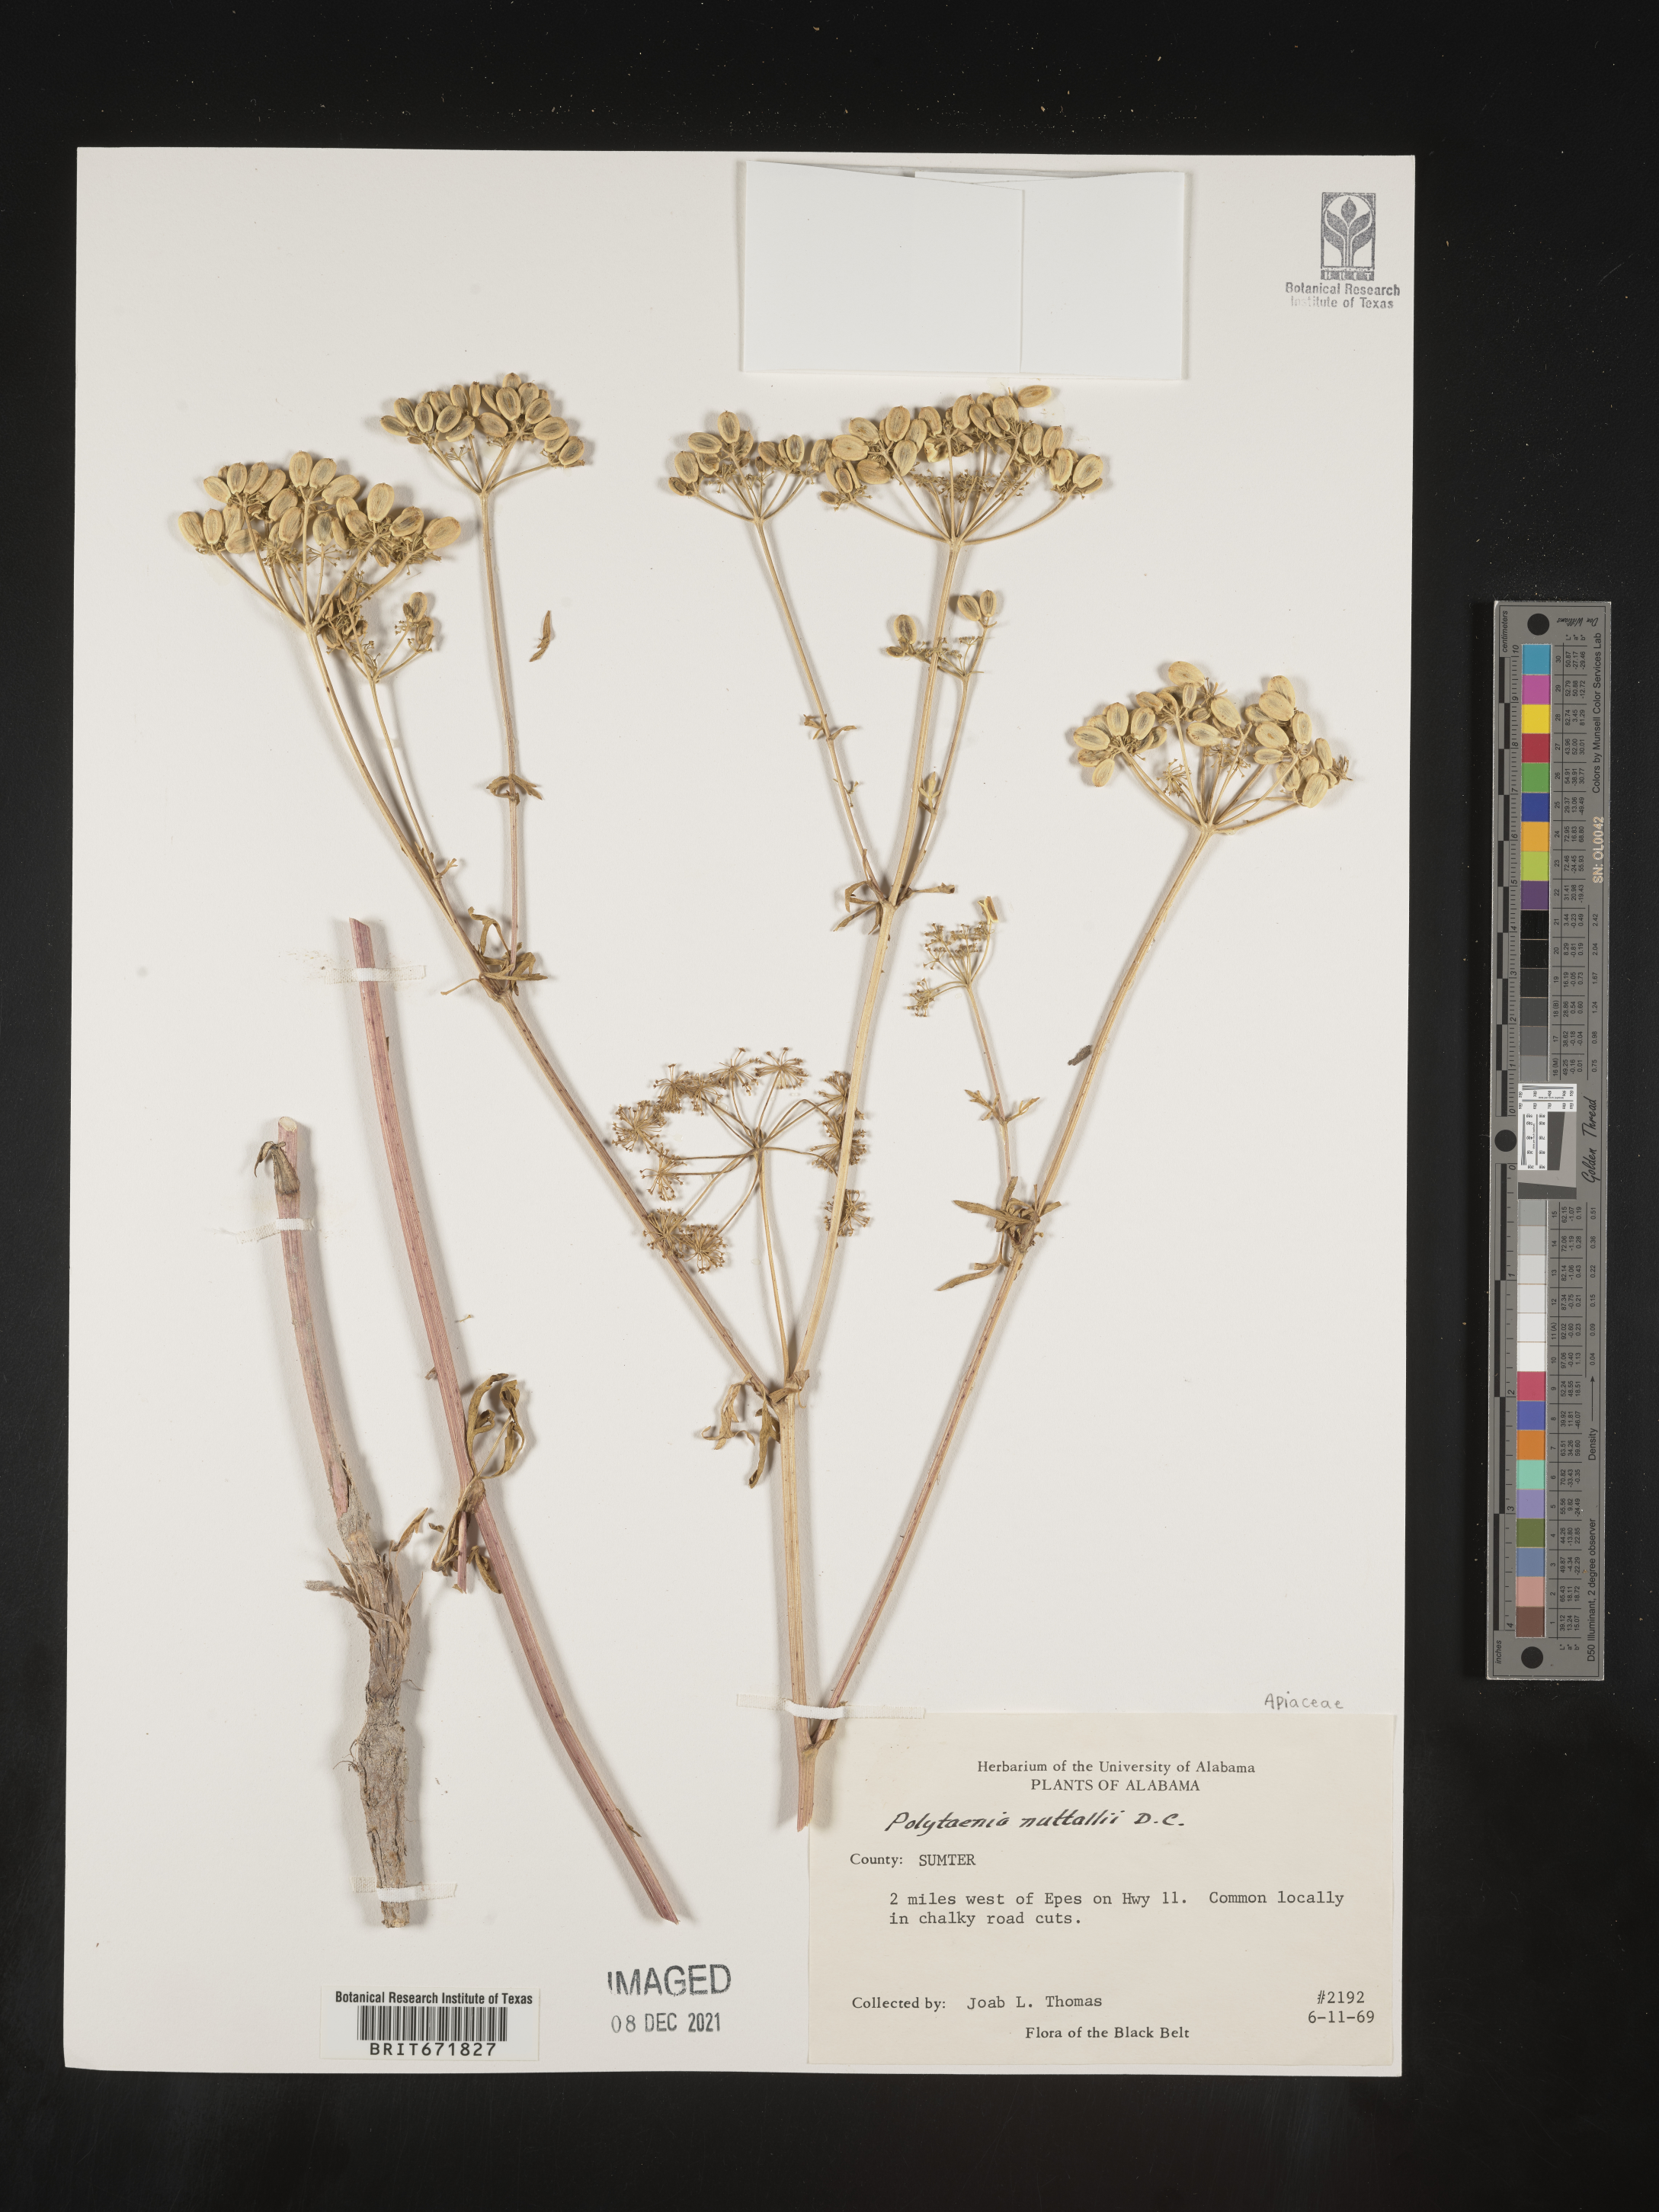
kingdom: Plantae
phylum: Tracheophyta
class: Magnoliopsida
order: Apiales
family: Apiaceae
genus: Polytaenia
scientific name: Polytaenia nuttallii
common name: Prairie-parsley
